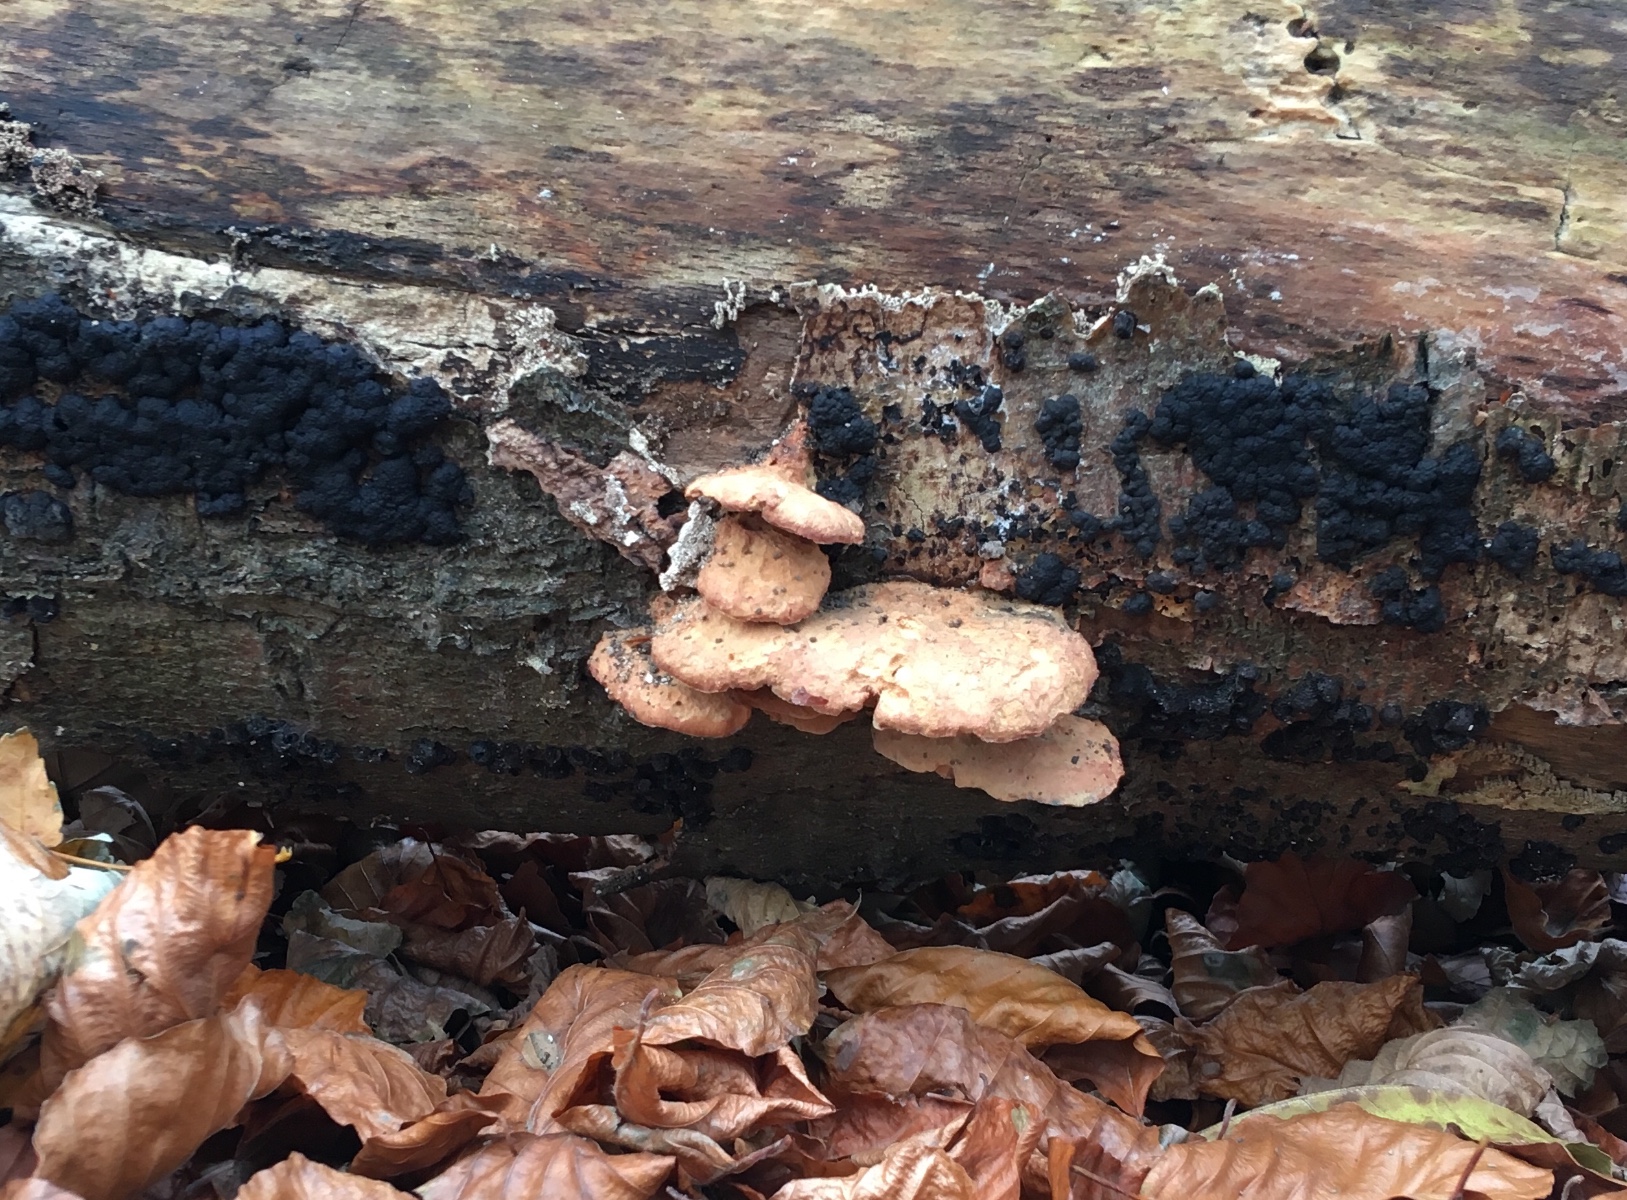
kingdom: Fungi
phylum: Basidiomycota
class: Agaricomycetes
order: Polyporales
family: Phanerochaetaceae
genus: Hapalopilus
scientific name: Hapalopilus rutilans
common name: rødlig okkerporesvamp
